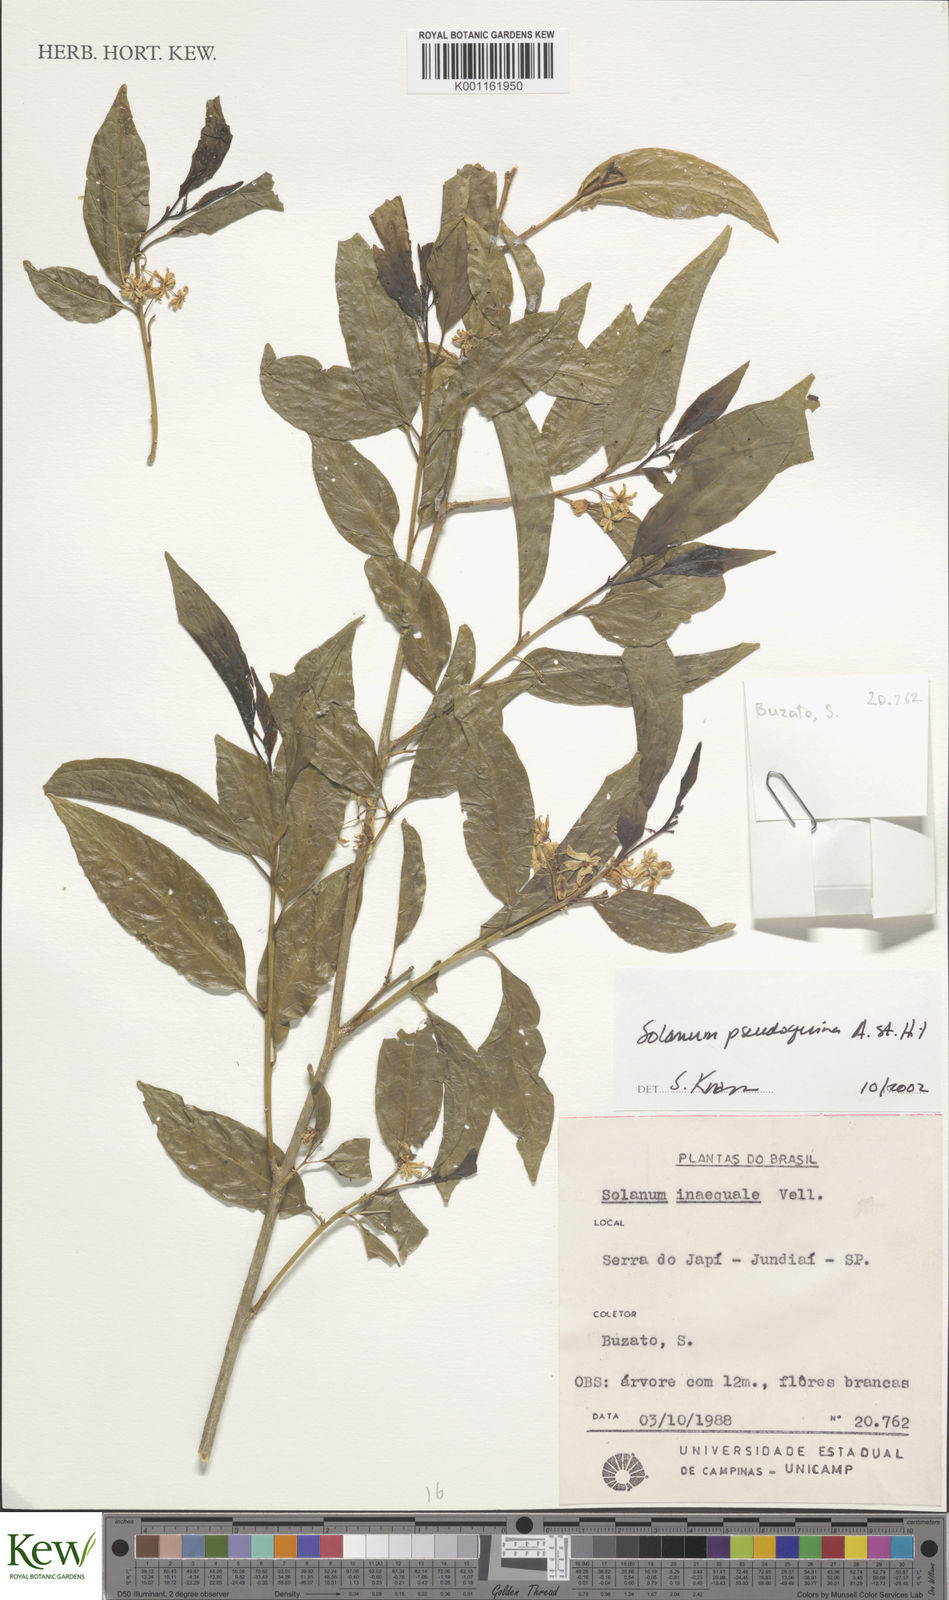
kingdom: Plantae
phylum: Tracheophyta
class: Magnoliopsida
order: Solanales
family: Solanaceae
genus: Solanum
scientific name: Solanum pseudoquina
